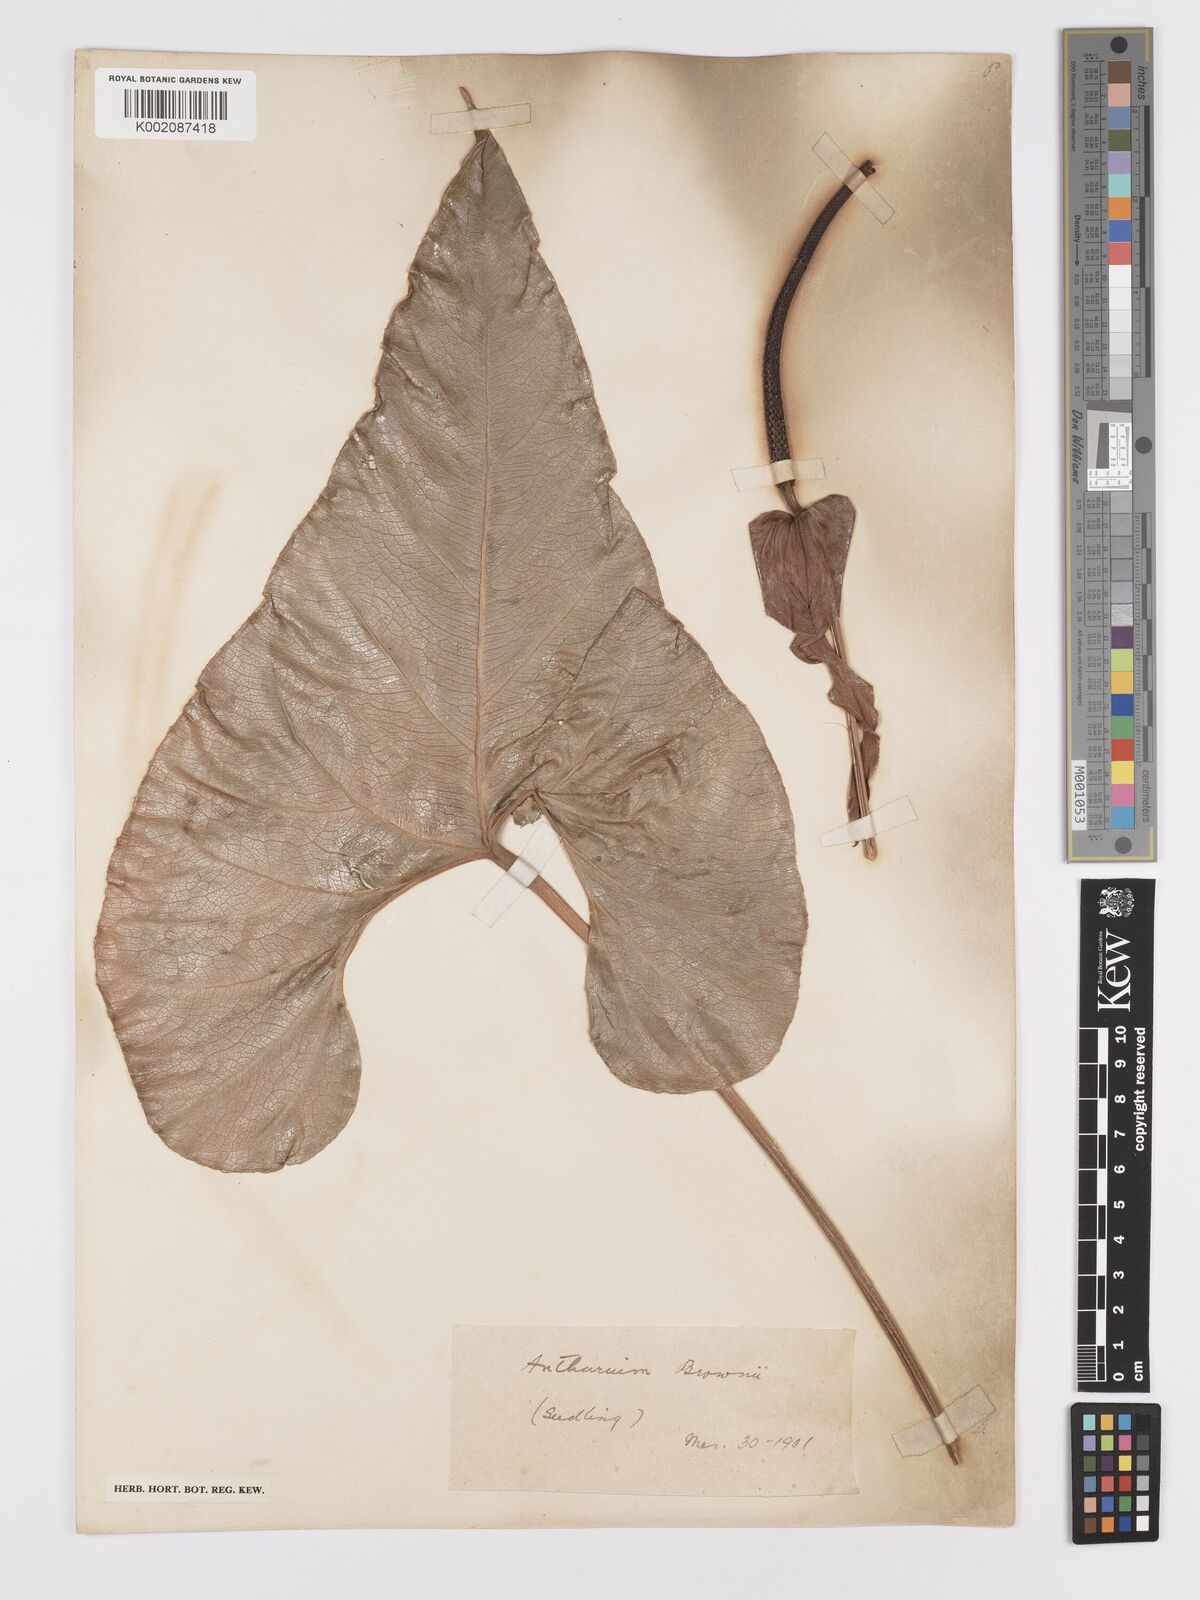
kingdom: Plantae
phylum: Tracheophyta
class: Liliopsida
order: Alismatales
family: Araceae
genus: Anthurium
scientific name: Anthurium brownii
